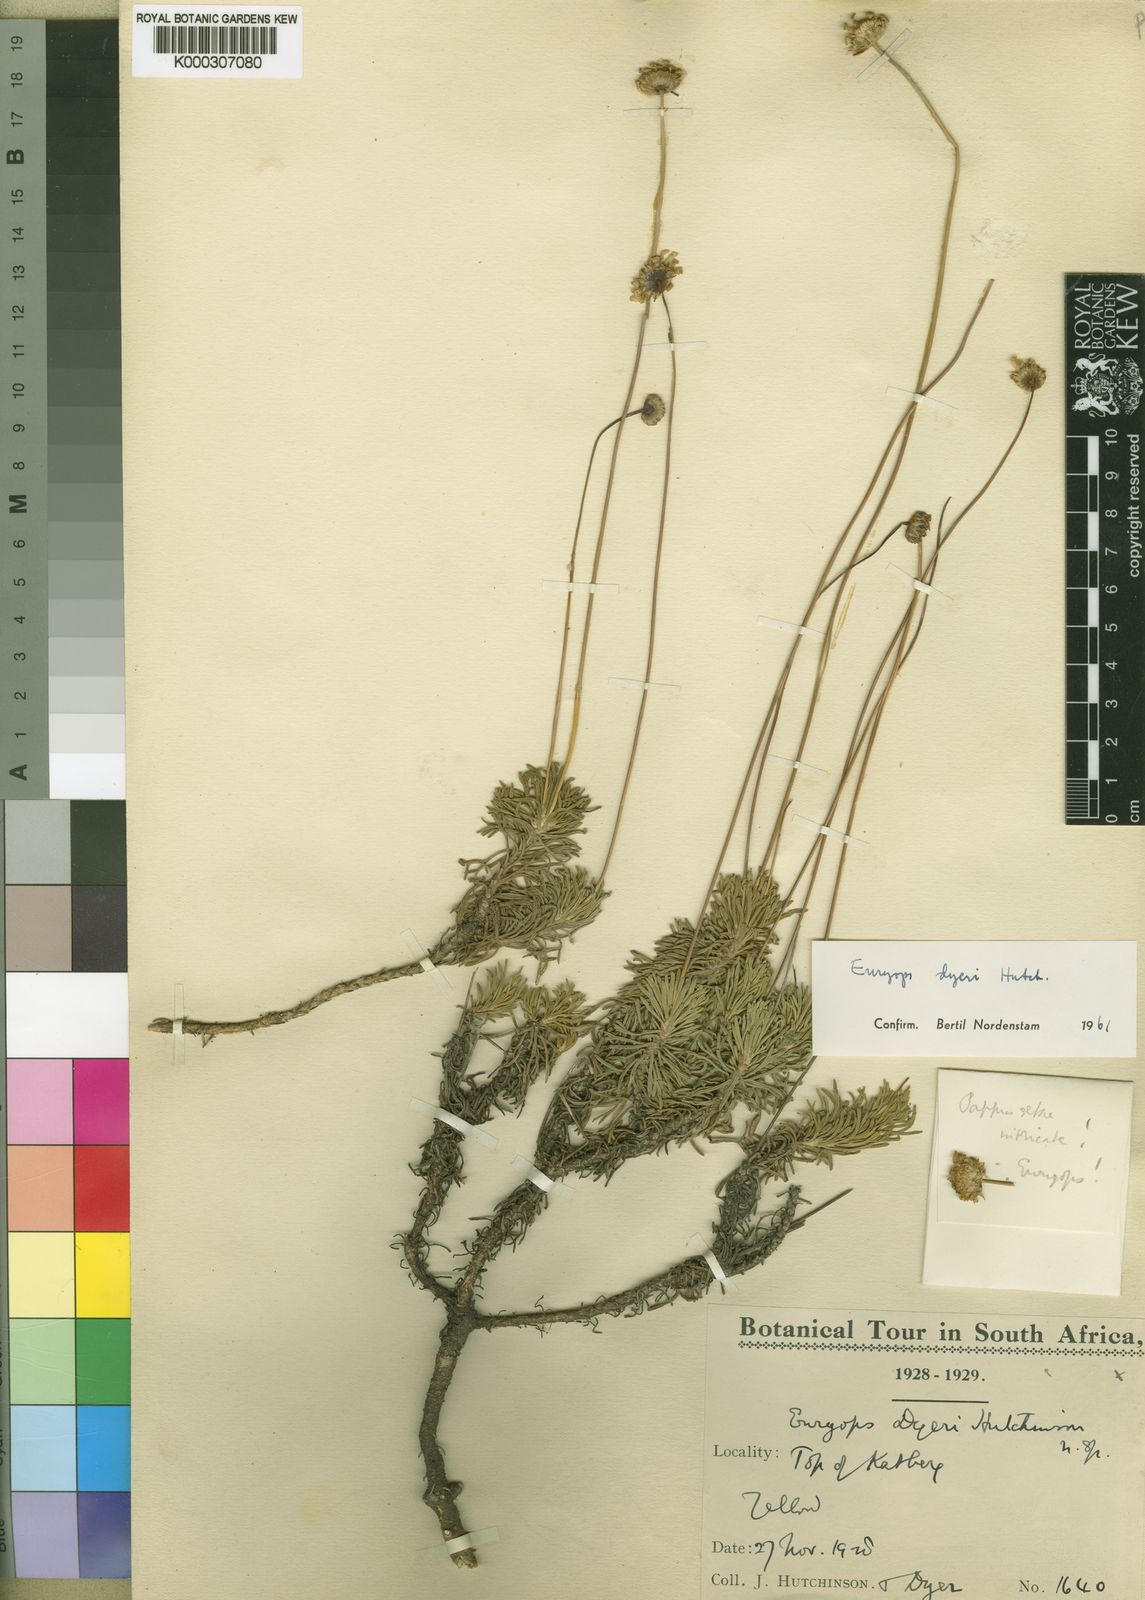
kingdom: Plantae
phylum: Tracheophyta
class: Magnoliopsida
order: Asterales
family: Asteraceae
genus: Euryops
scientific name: Euryops dyeri
